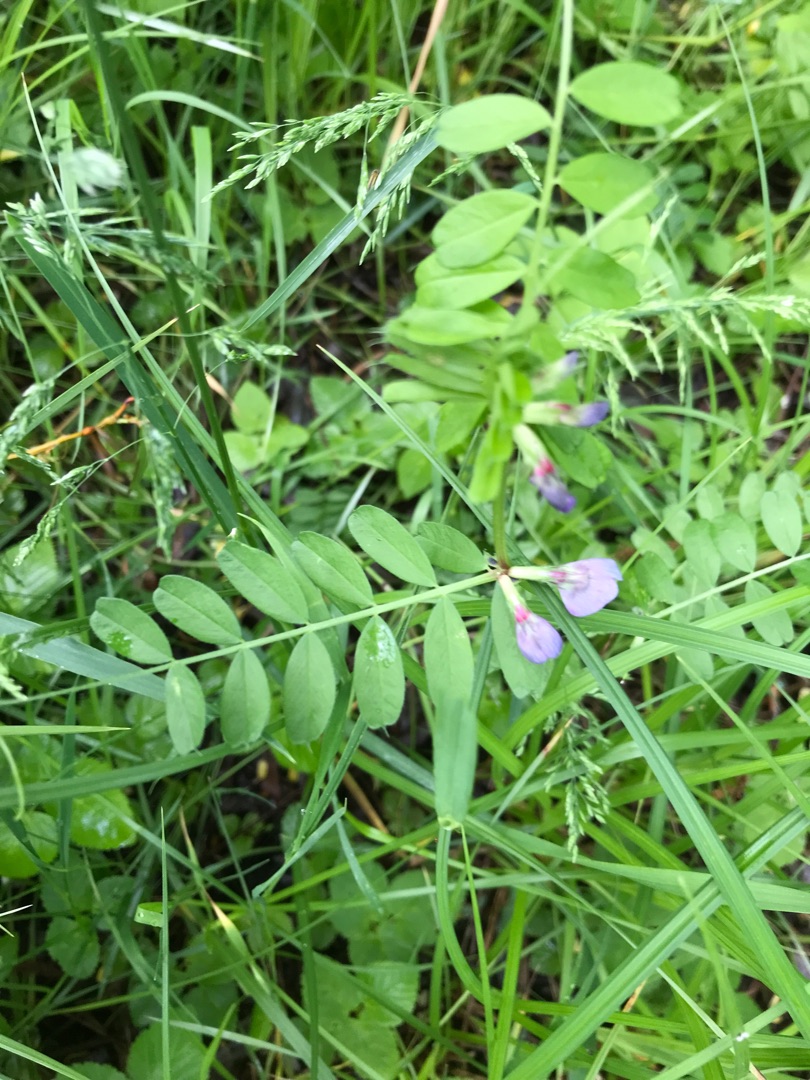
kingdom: Plantae
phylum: Tracheophyta
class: Magnoliopsida
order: Fabales
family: Fabaceae
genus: Vicia
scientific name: Vicia sativa
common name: Ager-vikke
